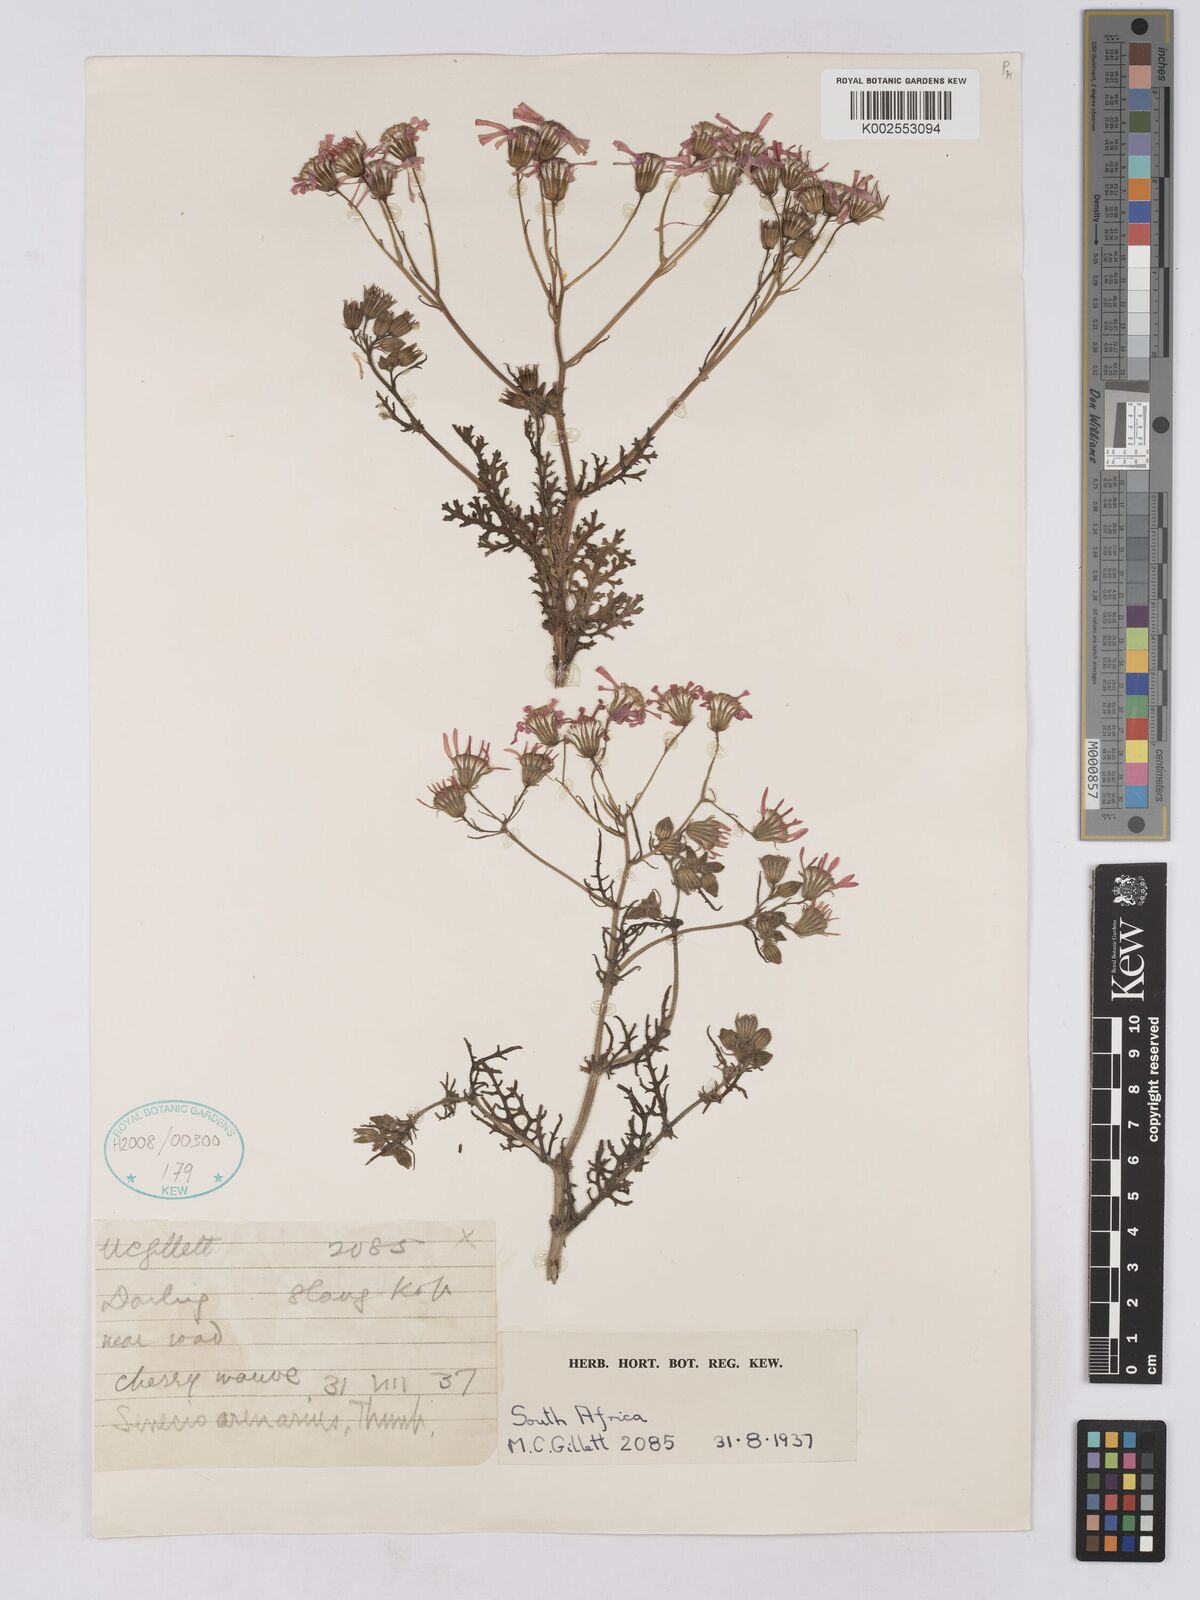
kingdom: Plantae
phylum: Tracheophyta
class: Magnoliopsida
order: Asterales
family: Asteraceae
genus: Senecio
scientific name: Senecio arenarius
